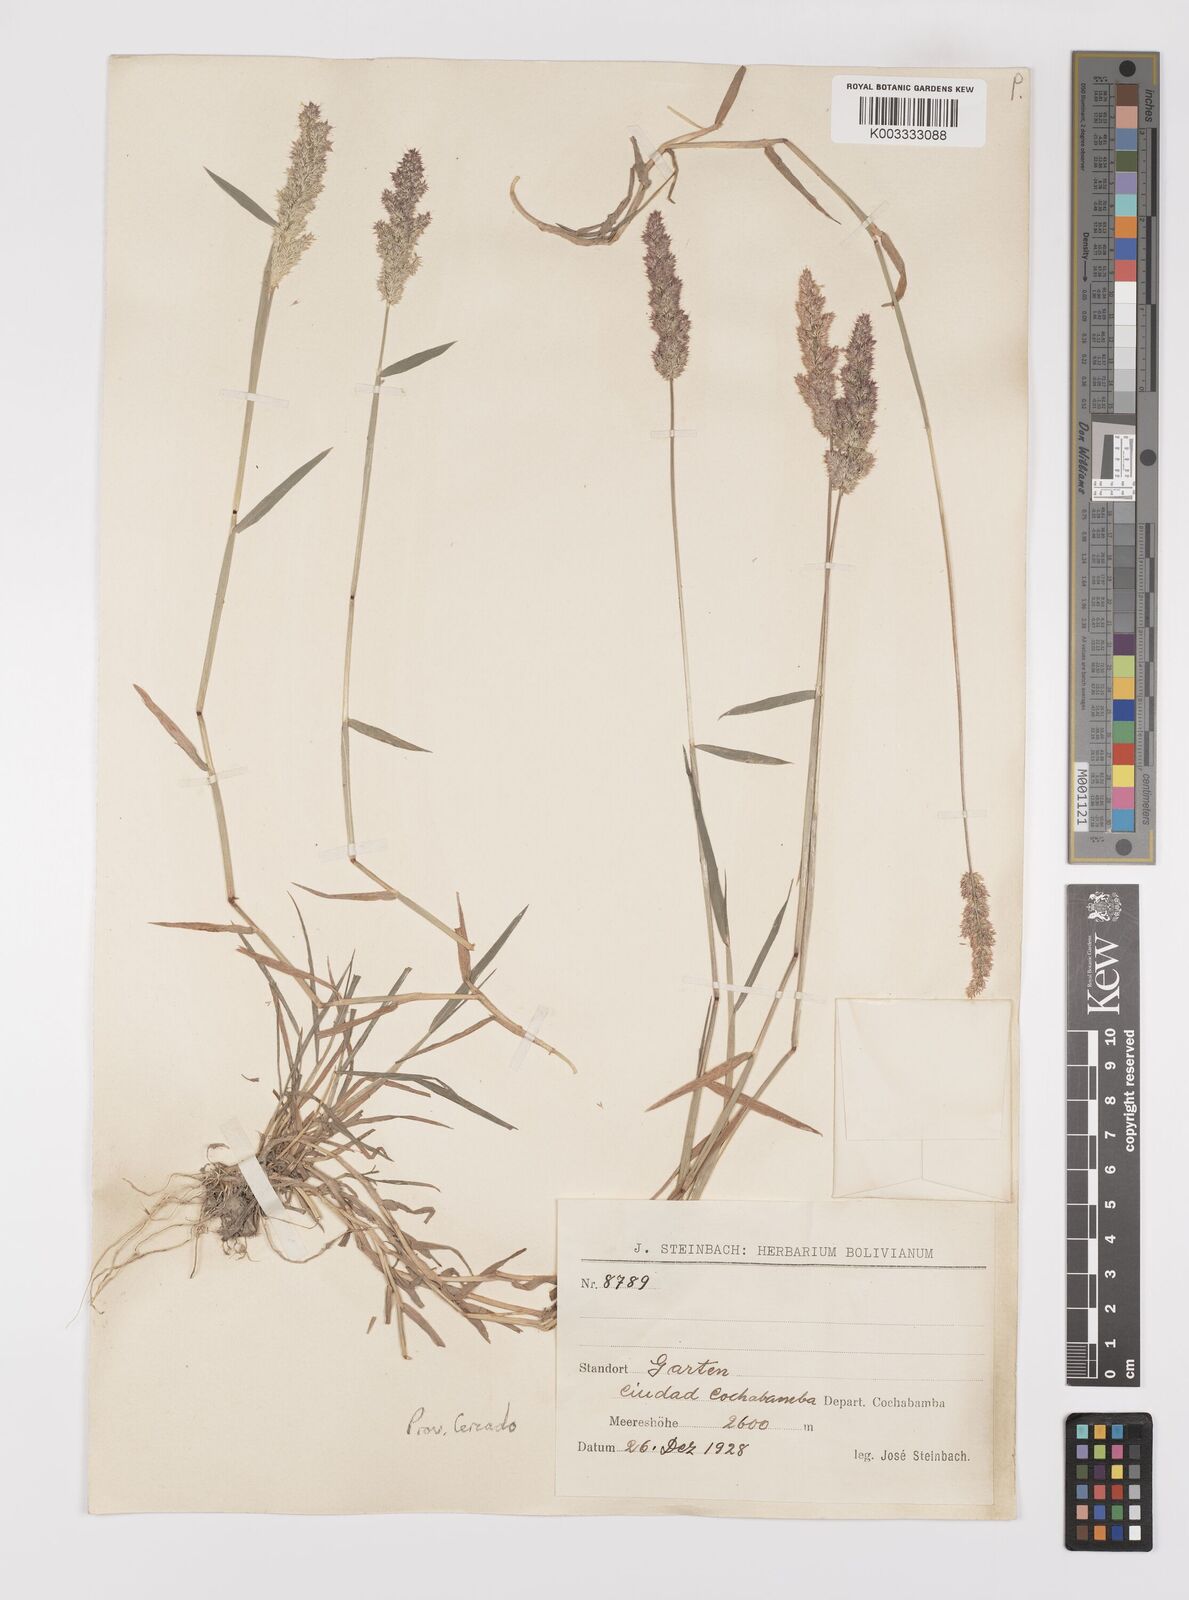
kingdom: Plantae
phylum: Tracheophyta
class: Liliopsida
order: Poales
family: Poaceae
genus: Polypogon
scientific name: Polypogon interruptus
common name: Ditch polypogon
